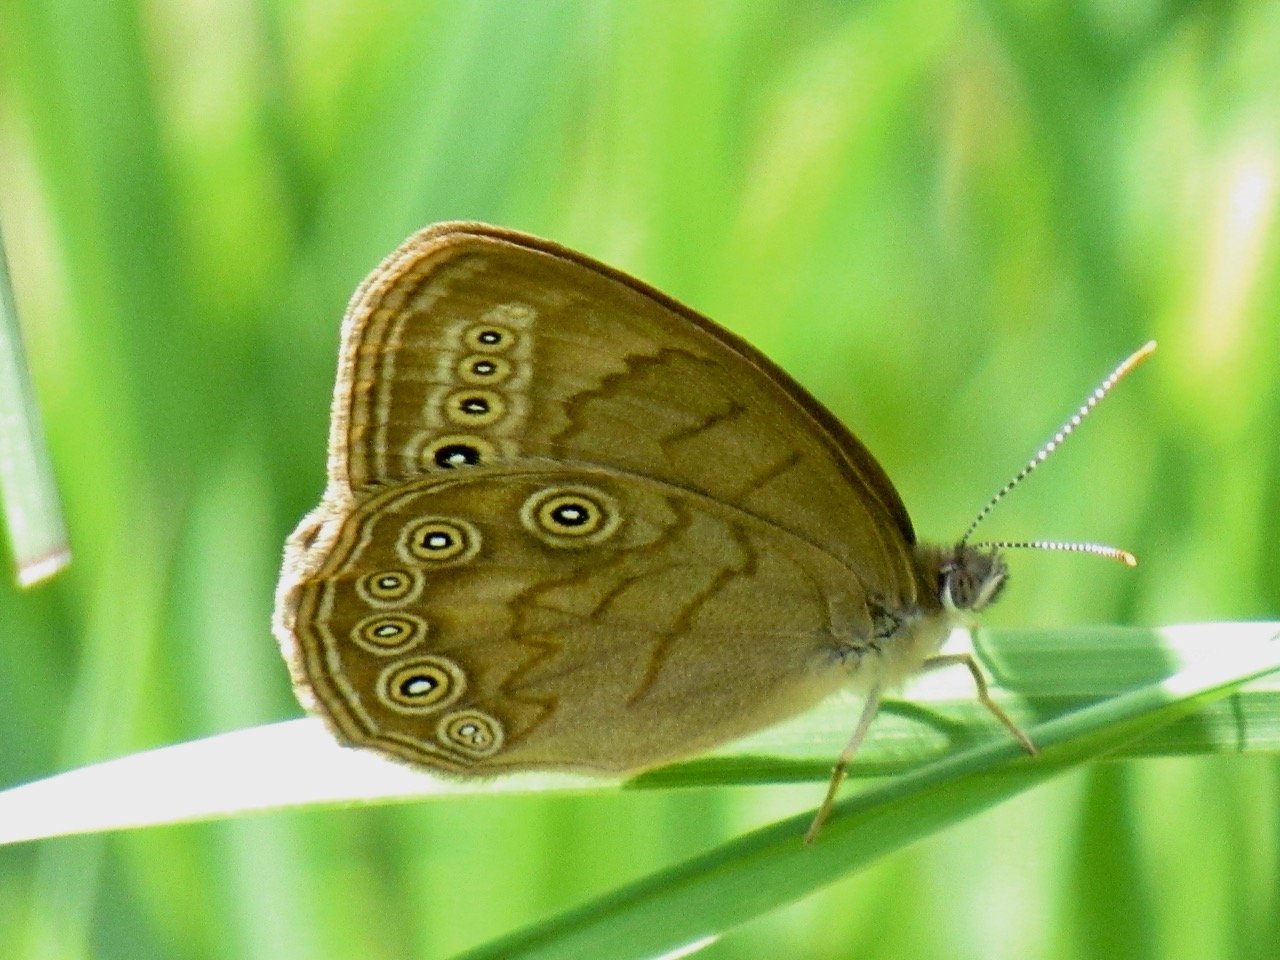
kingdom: Animalia
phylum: Arthropoda
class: Insecta
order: Lepidoptera
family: Nymphalidae
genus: Lethe
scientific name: Lethe eurydice
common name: Eyed Brown
